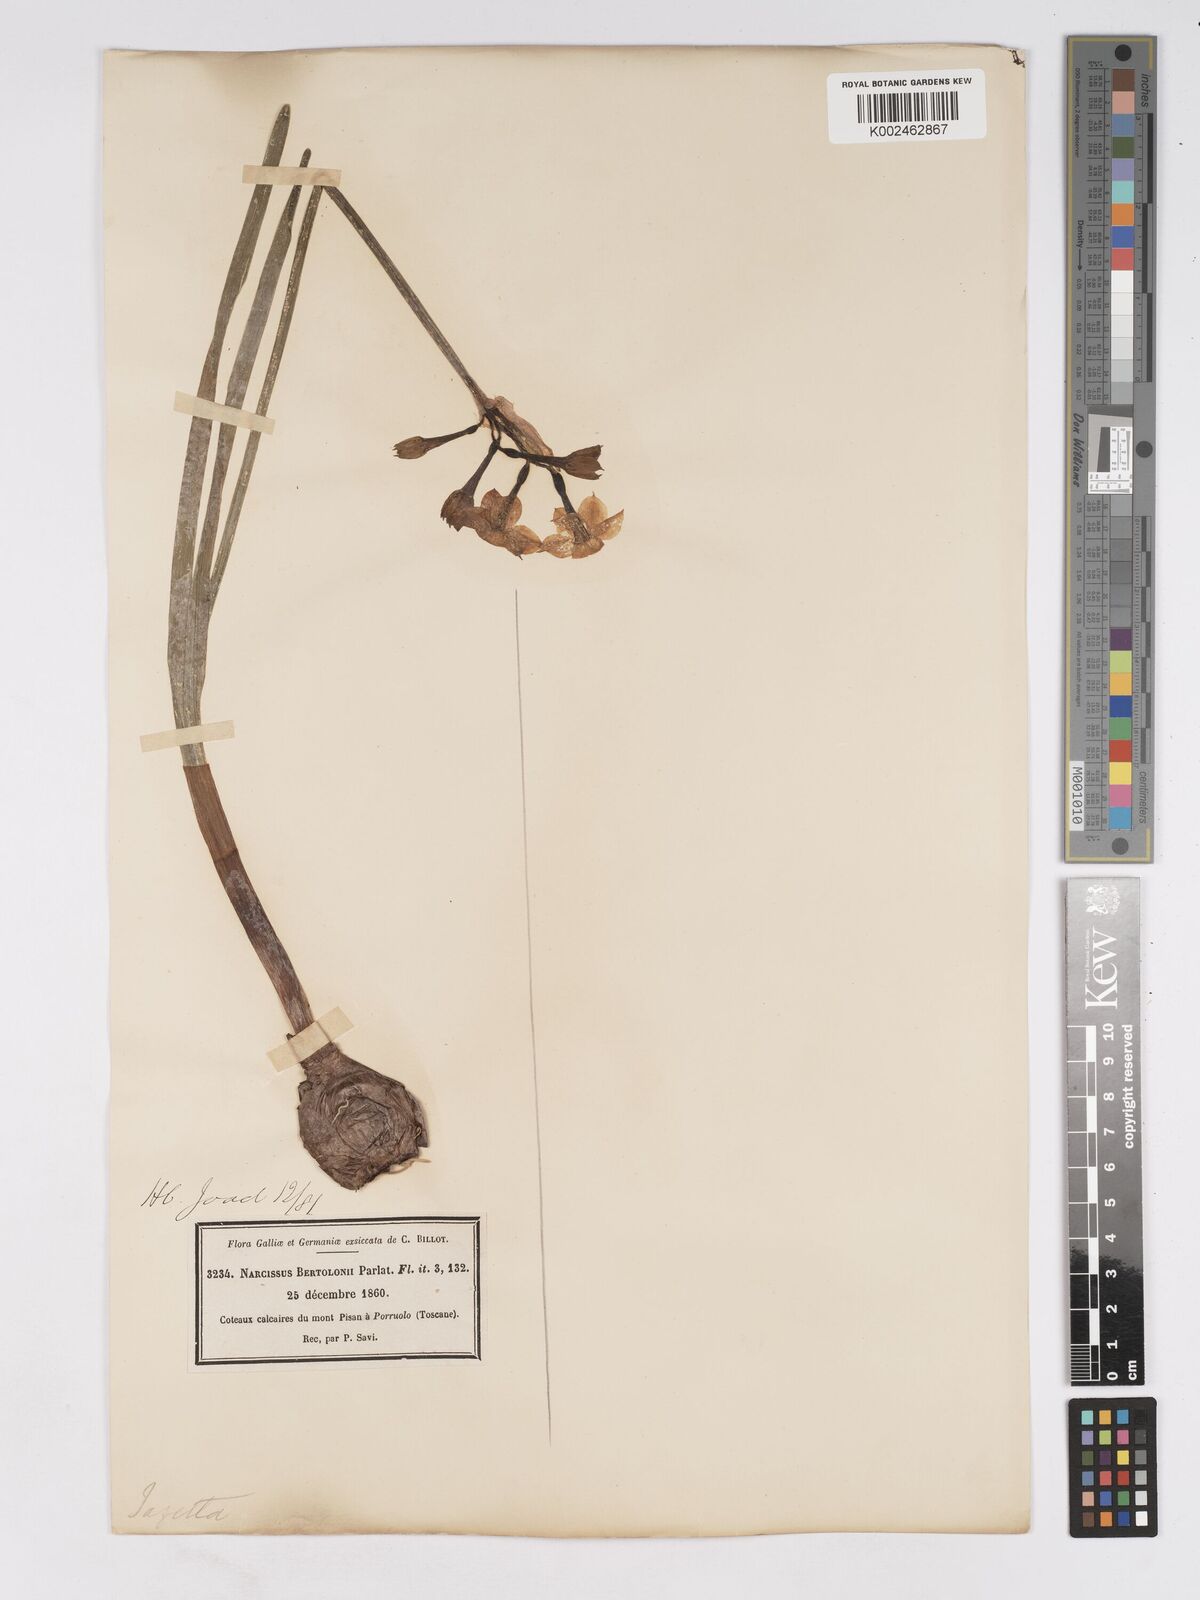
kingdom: Plantae
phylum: Tracheophyta
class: Liliopsida
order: Asparagales
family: Amaryllidaceae
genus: Narcissus
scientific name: Narcissus tazetta
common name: Bunch-flowered daffodil
